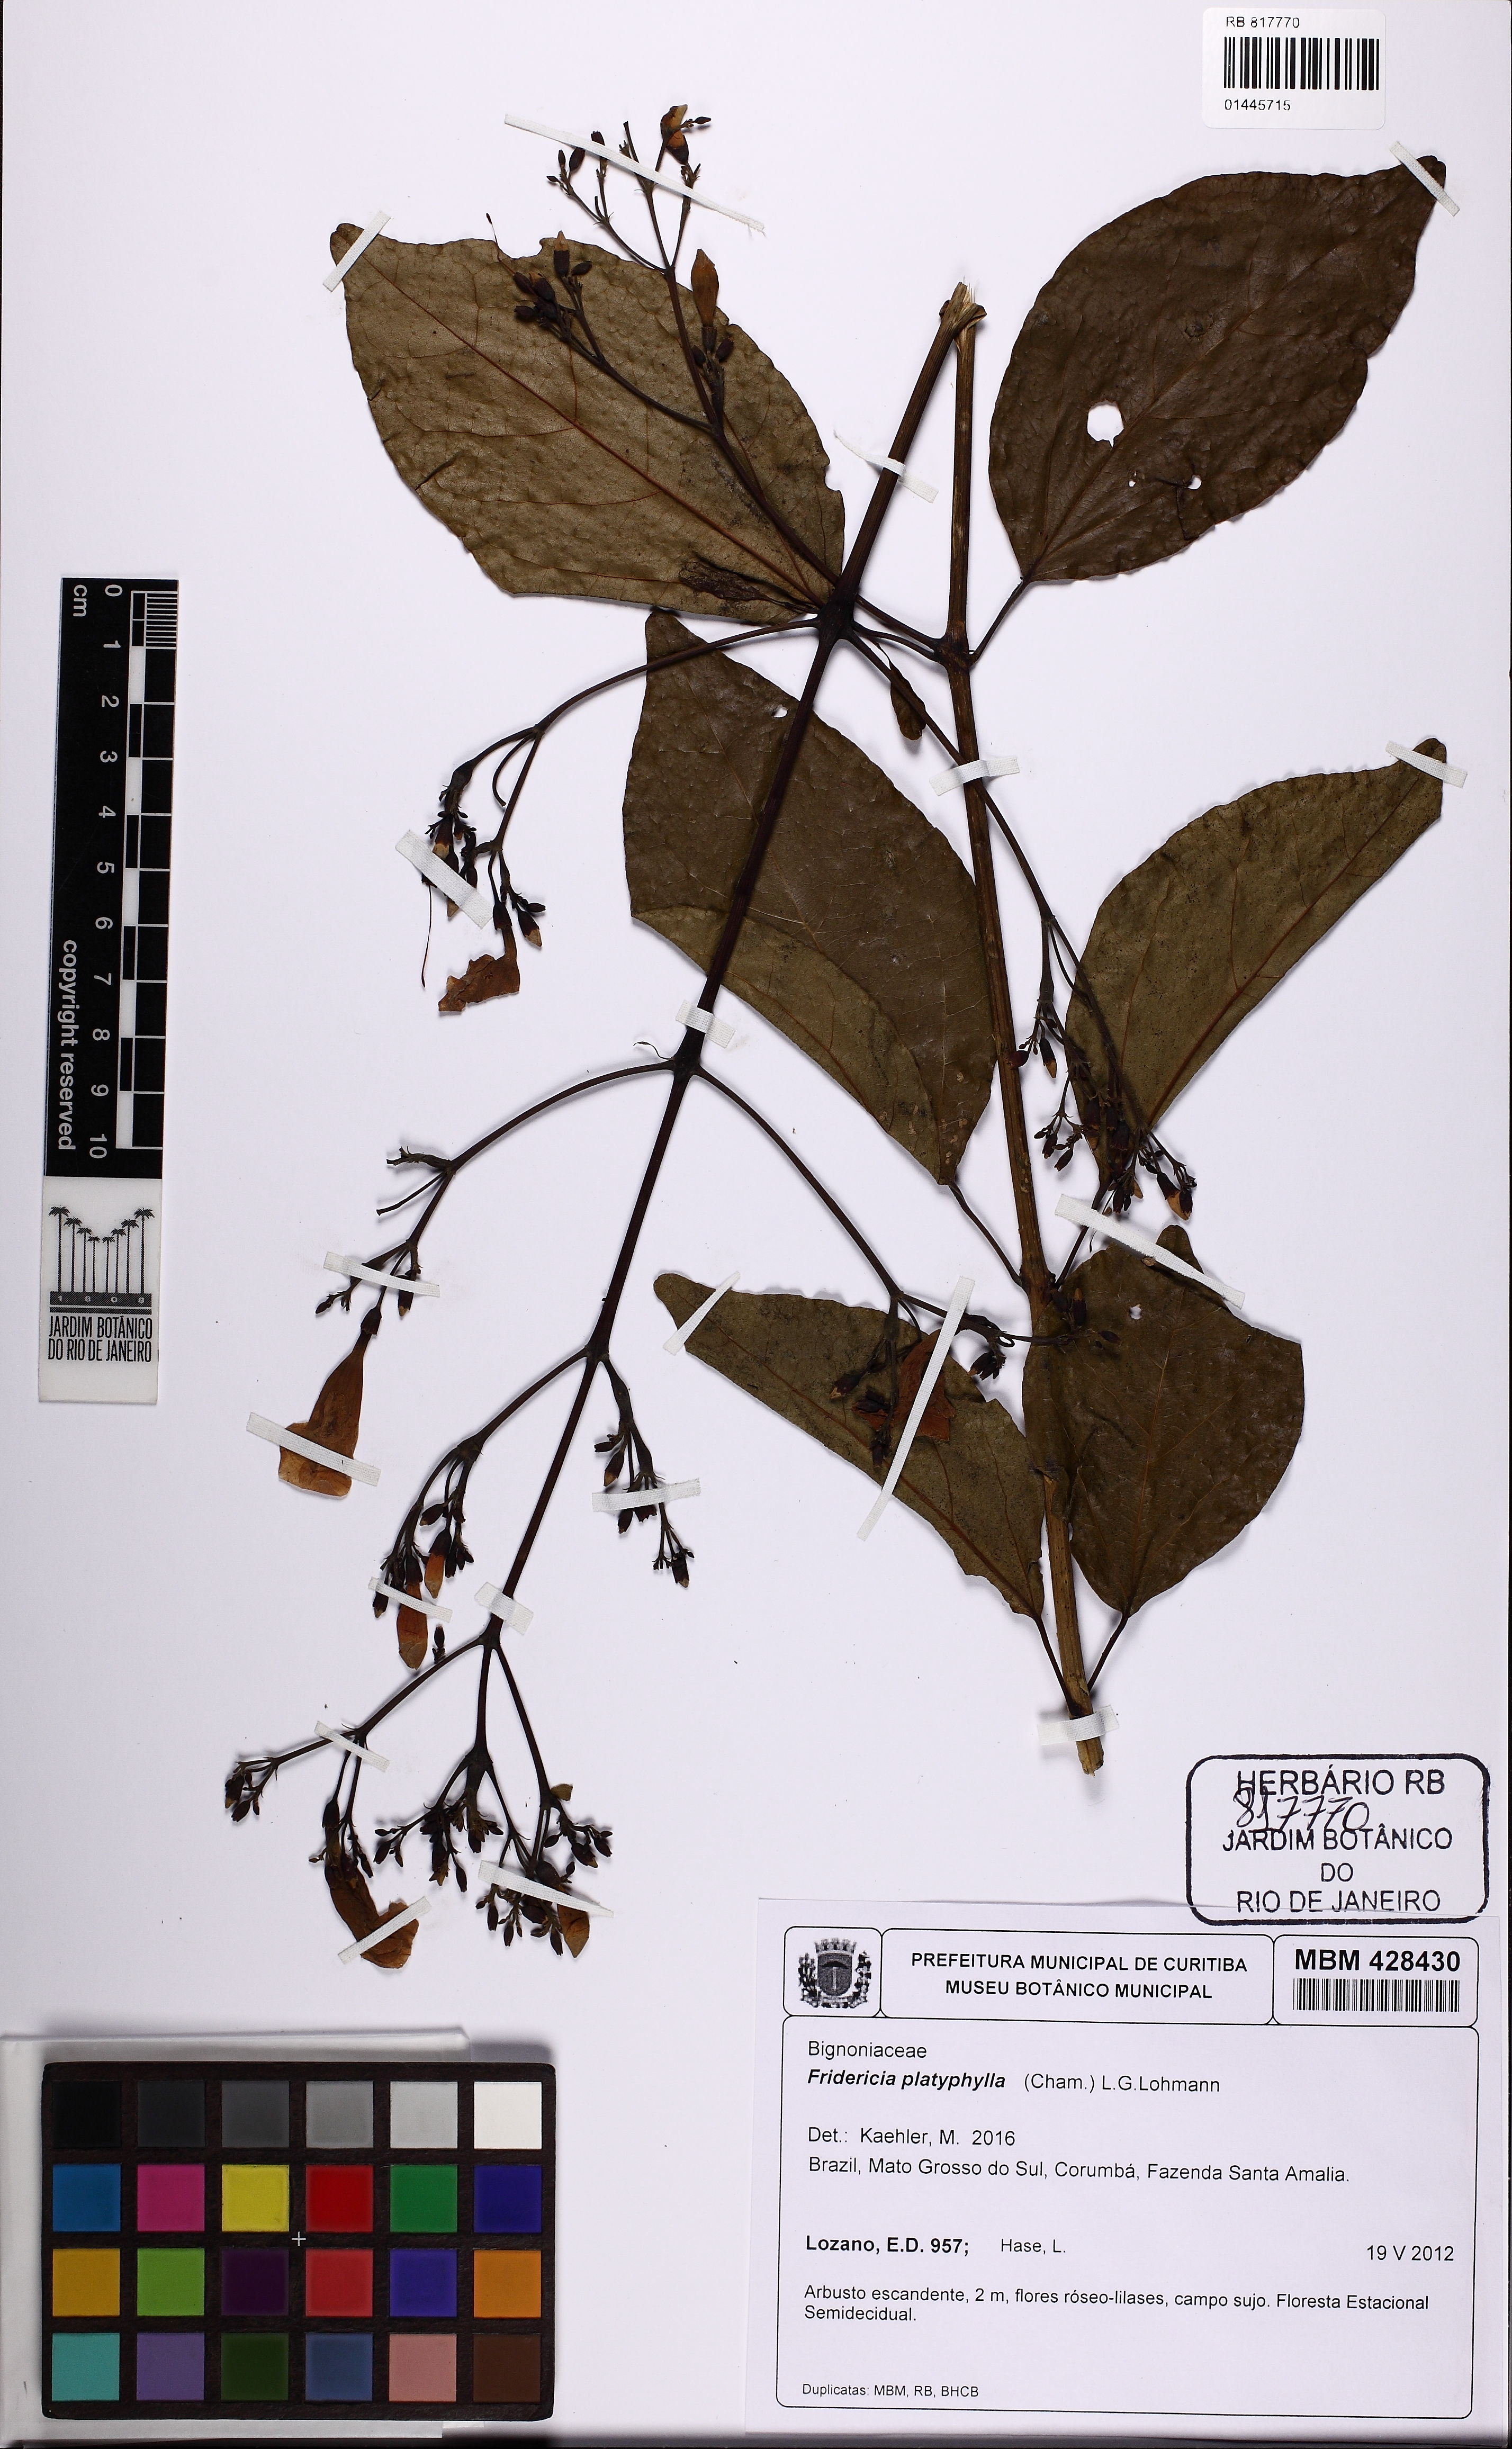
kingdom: Plantae
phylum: Tracheophyta
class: Magnoliopsida
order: Lamiales
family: Bignoniaceae
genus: Fridericia
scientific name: Fridericia platyphylla
